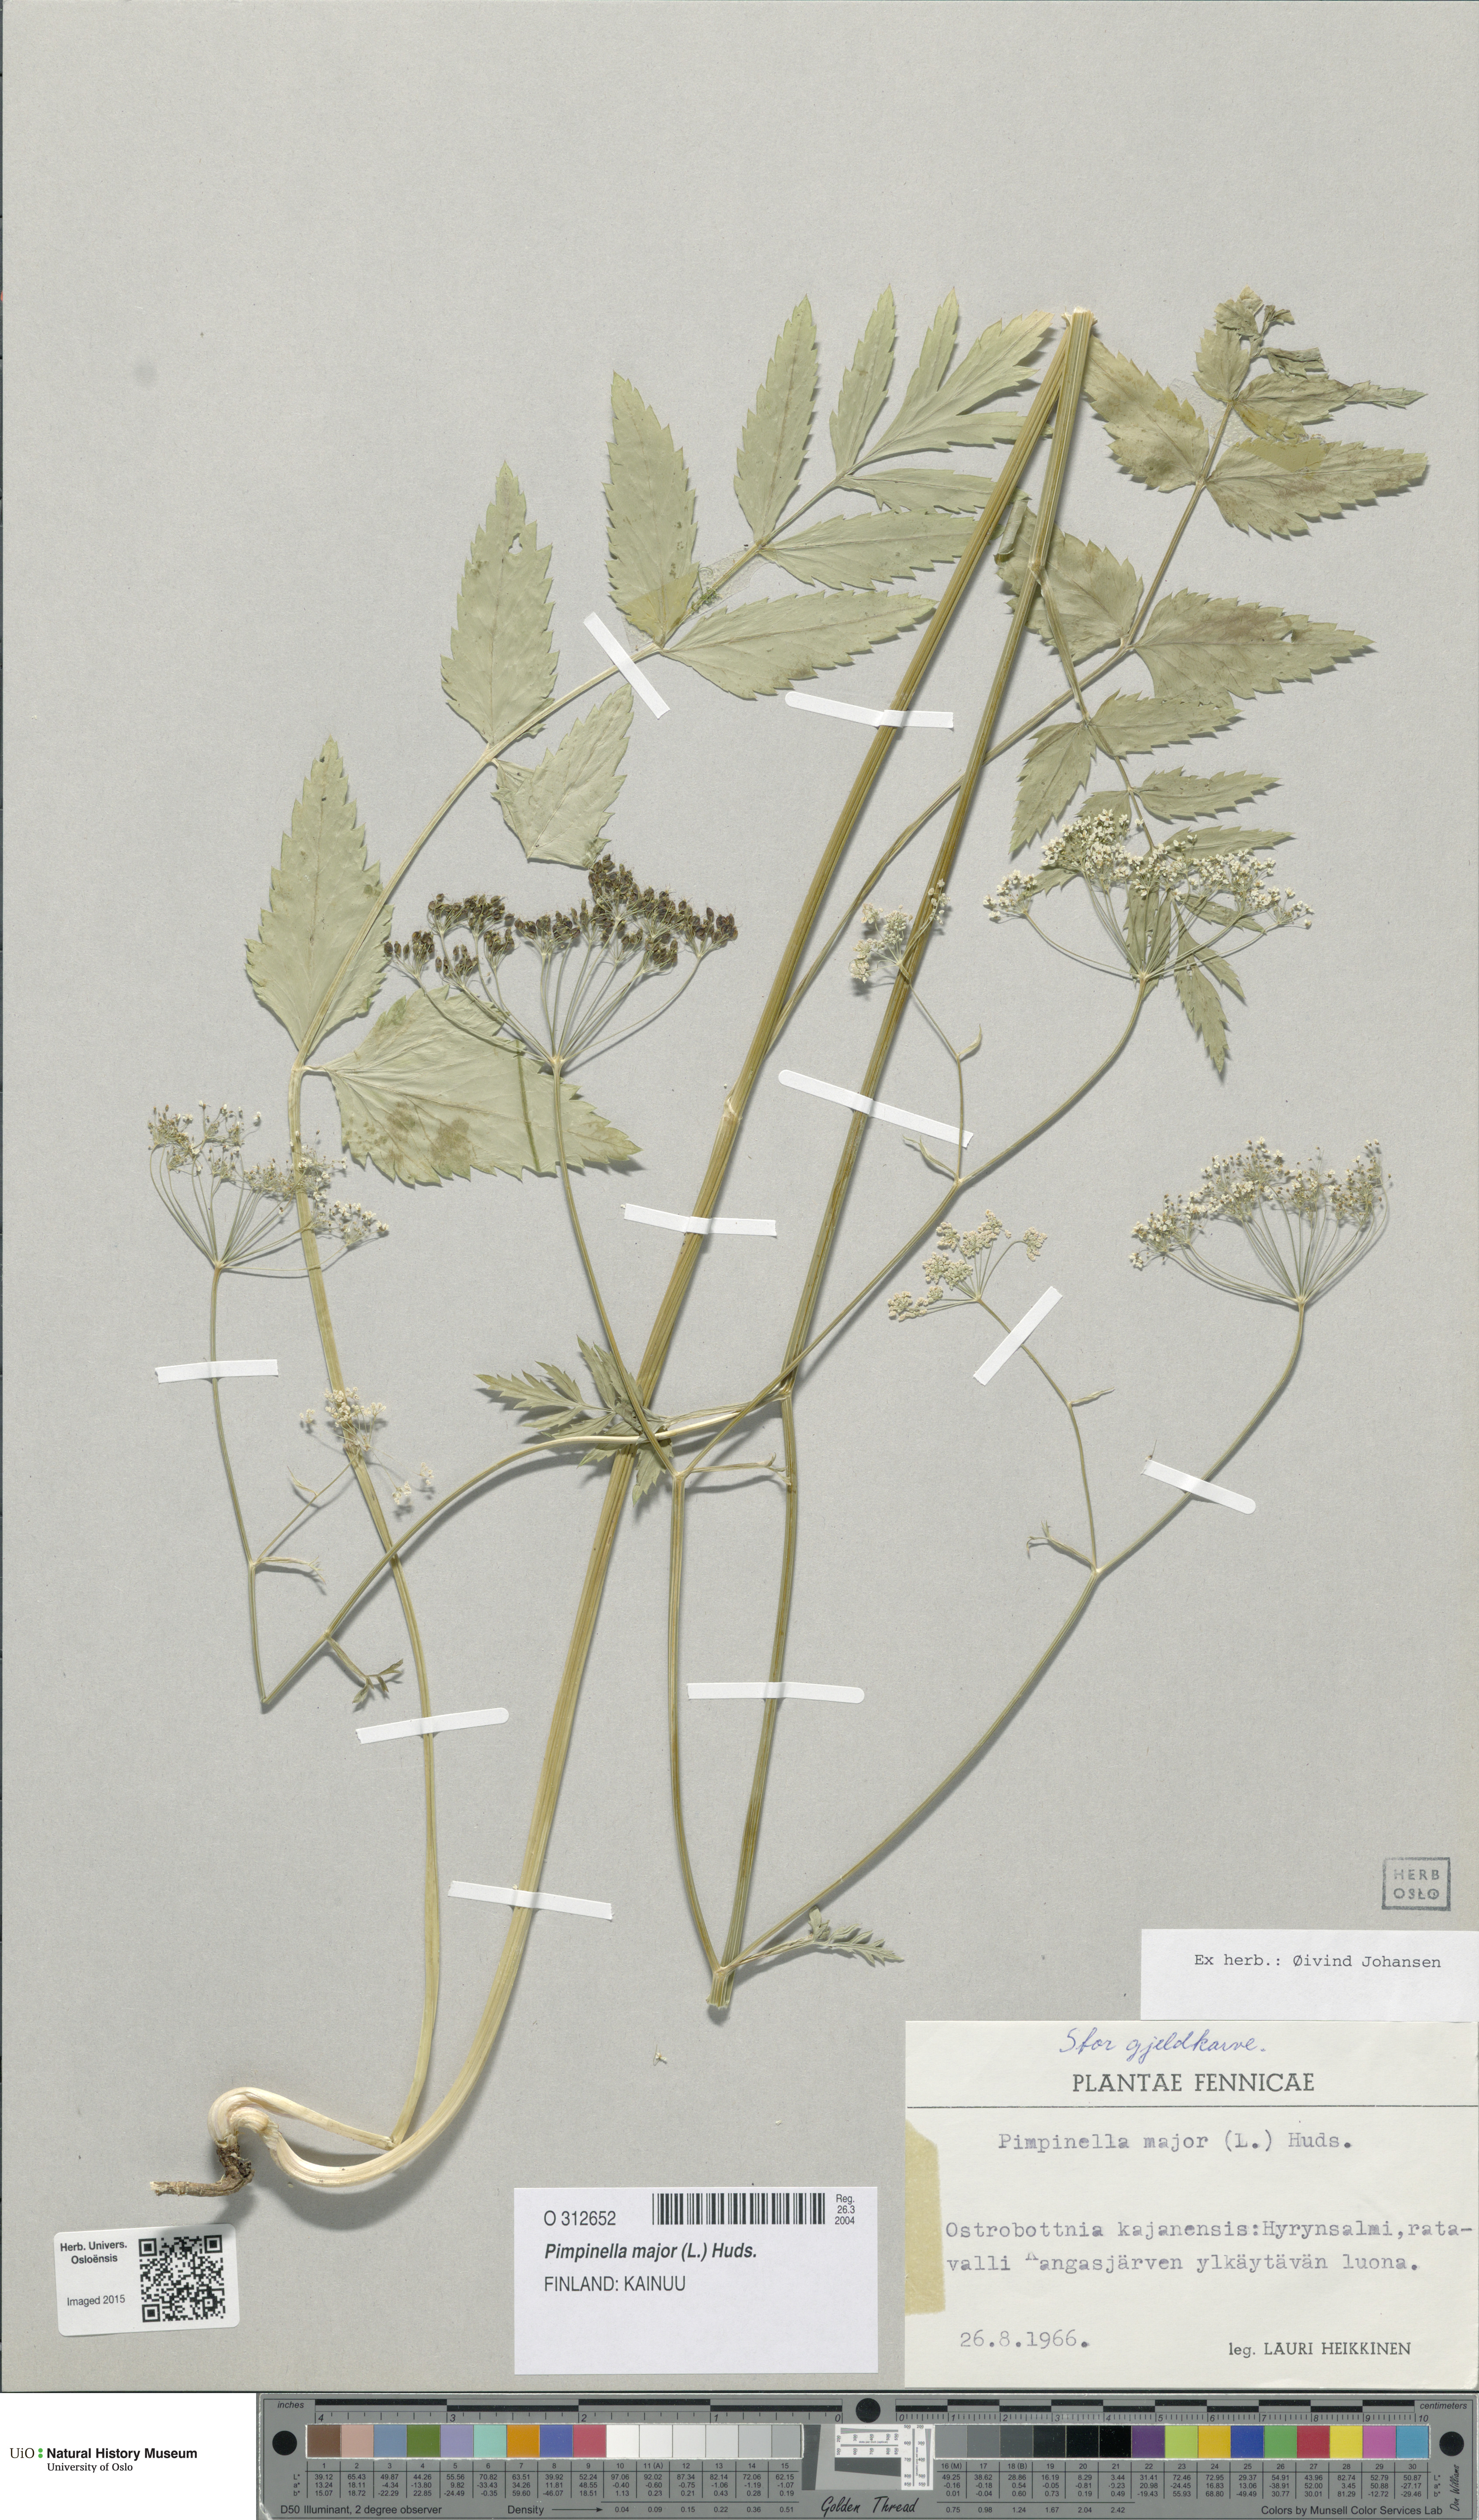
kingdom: Plantae
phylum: Tracheophyta
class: Magnoliopsida
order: Apiales
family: Apiaceae
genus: Pimpinella
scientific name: Pimpinella major
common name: Greater burnet-saxifrage
